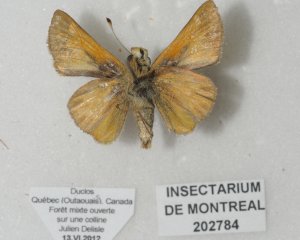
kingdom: Animalia
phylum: Arthropoda
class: Insecta
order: Lepidoptera
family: Hesperiidae
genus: Polites
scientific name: Polites
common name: Crossline Skipper
